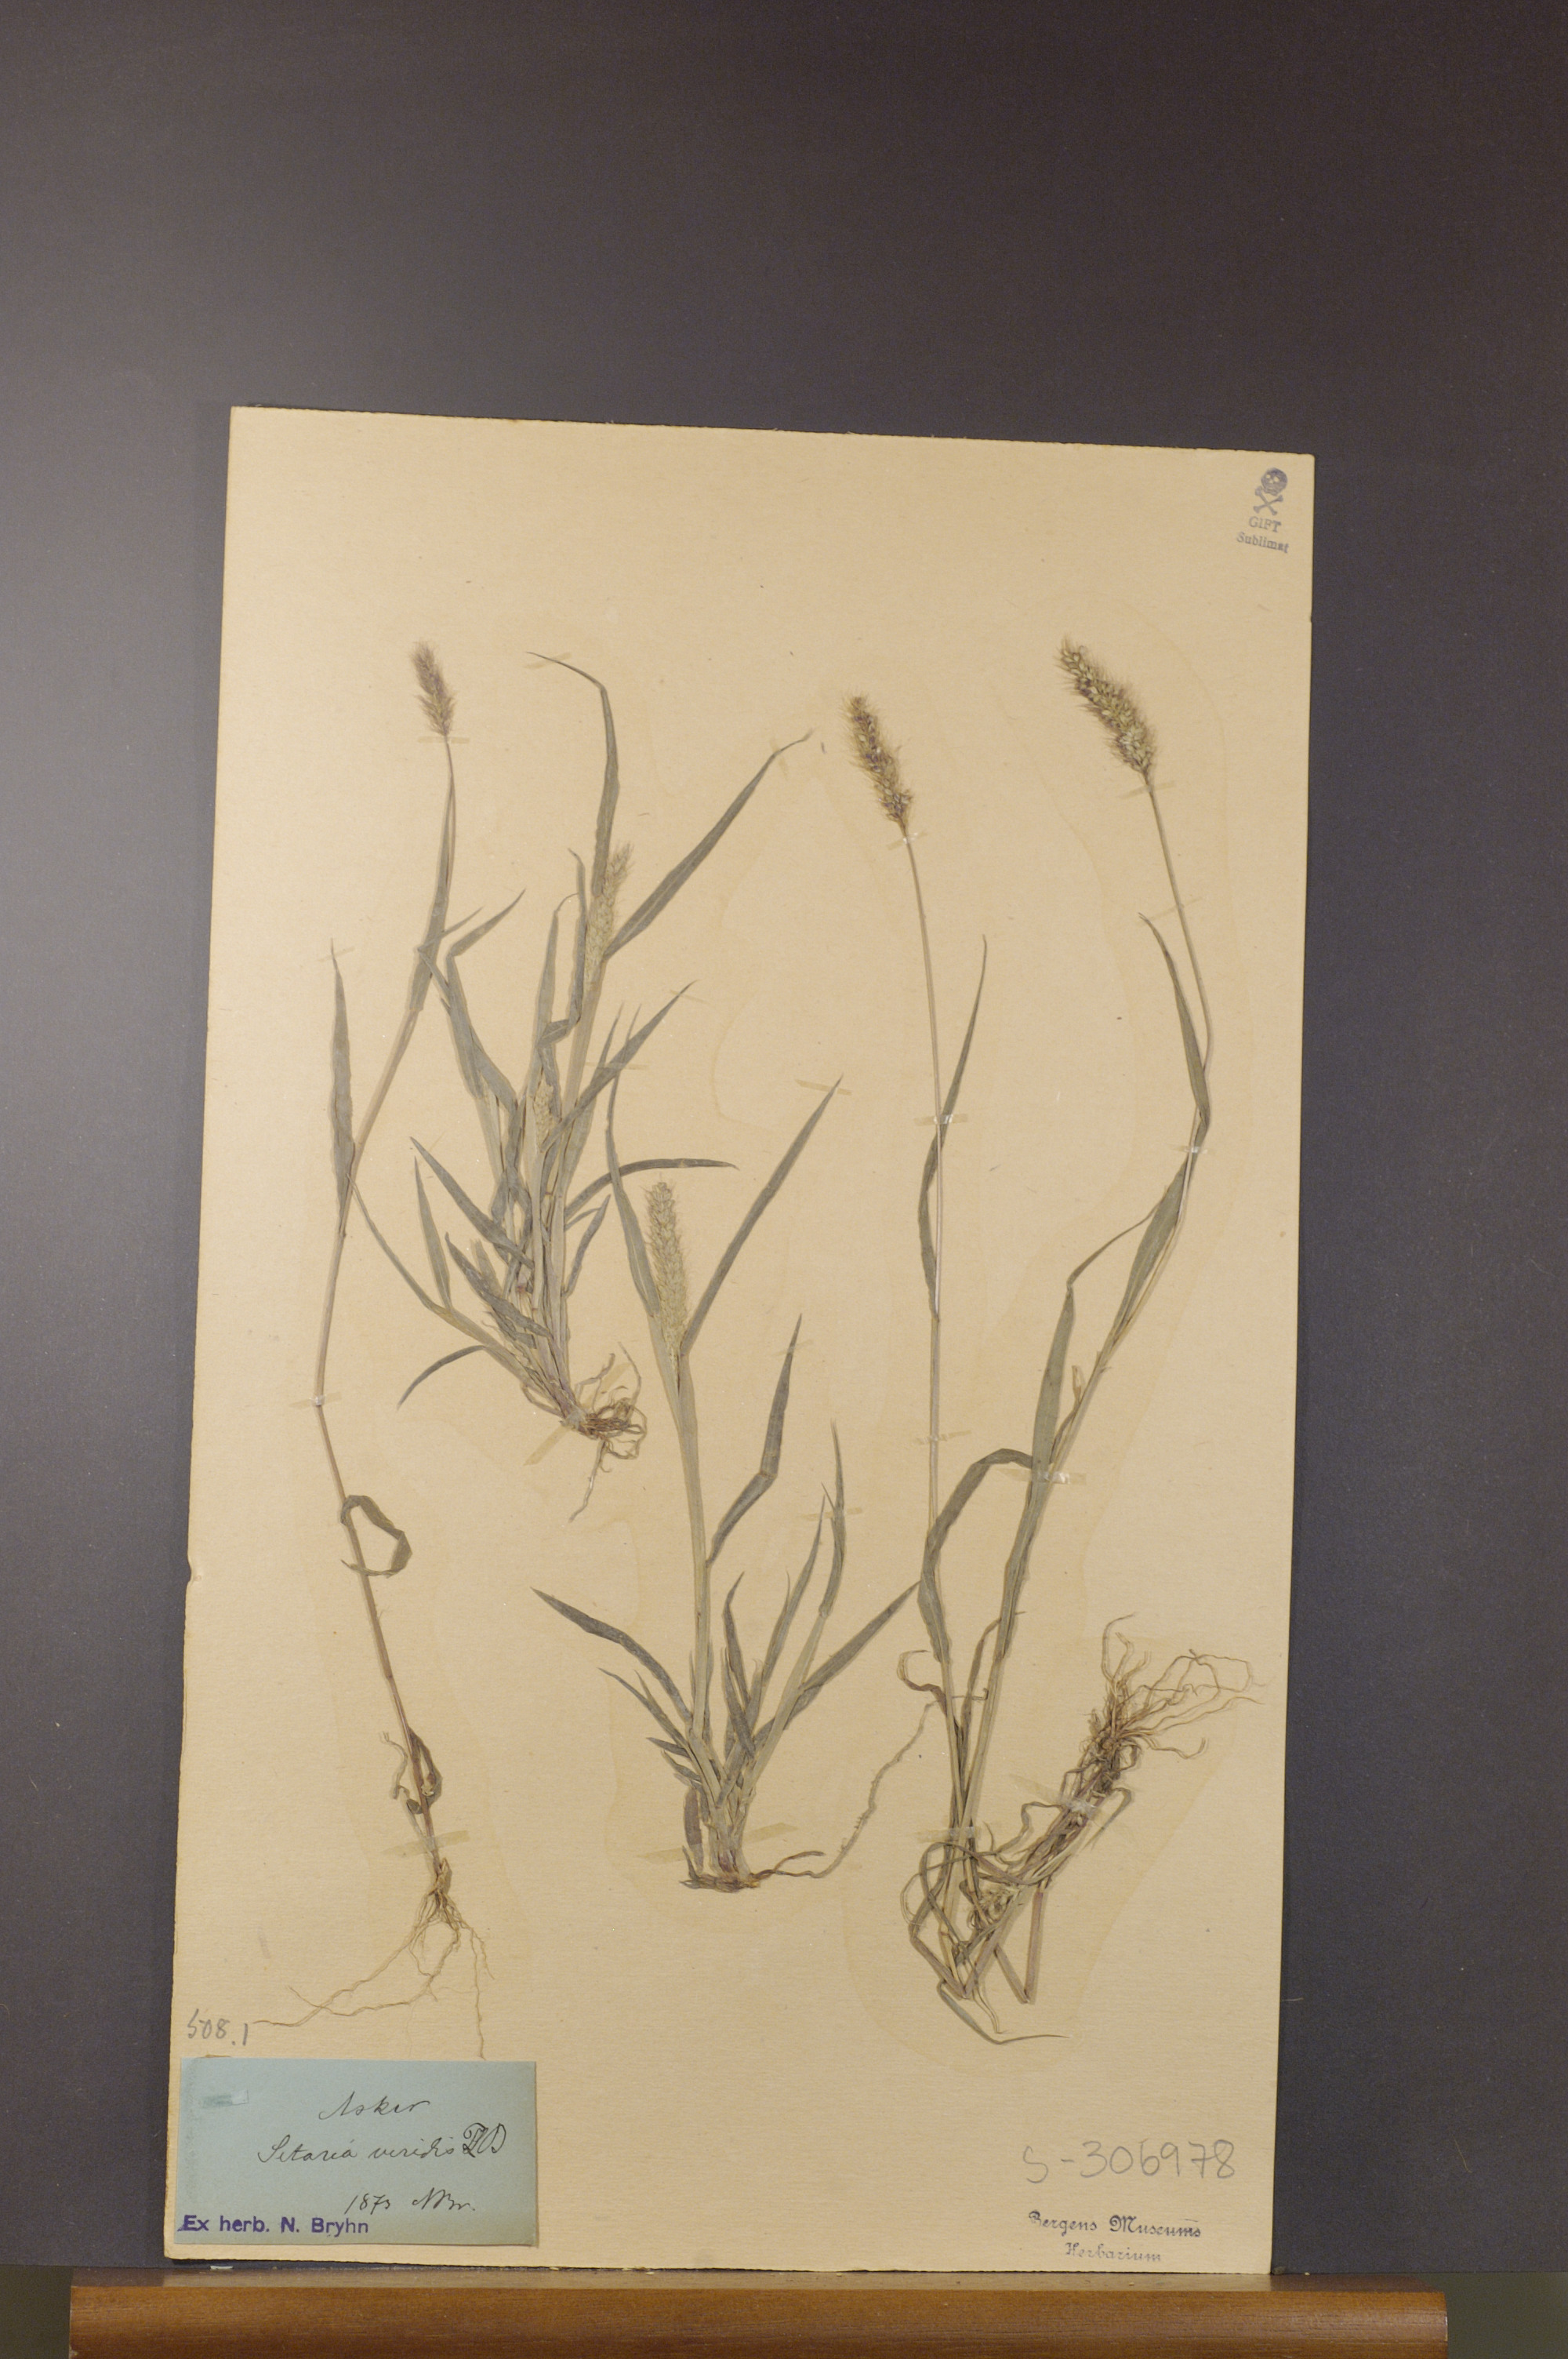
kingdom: Plantae
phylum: Tracheophyta
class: Liliopsida
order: Poales
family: Poaceae
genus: Setaria
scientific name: Setaria viridis
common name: Green bristlegrass
